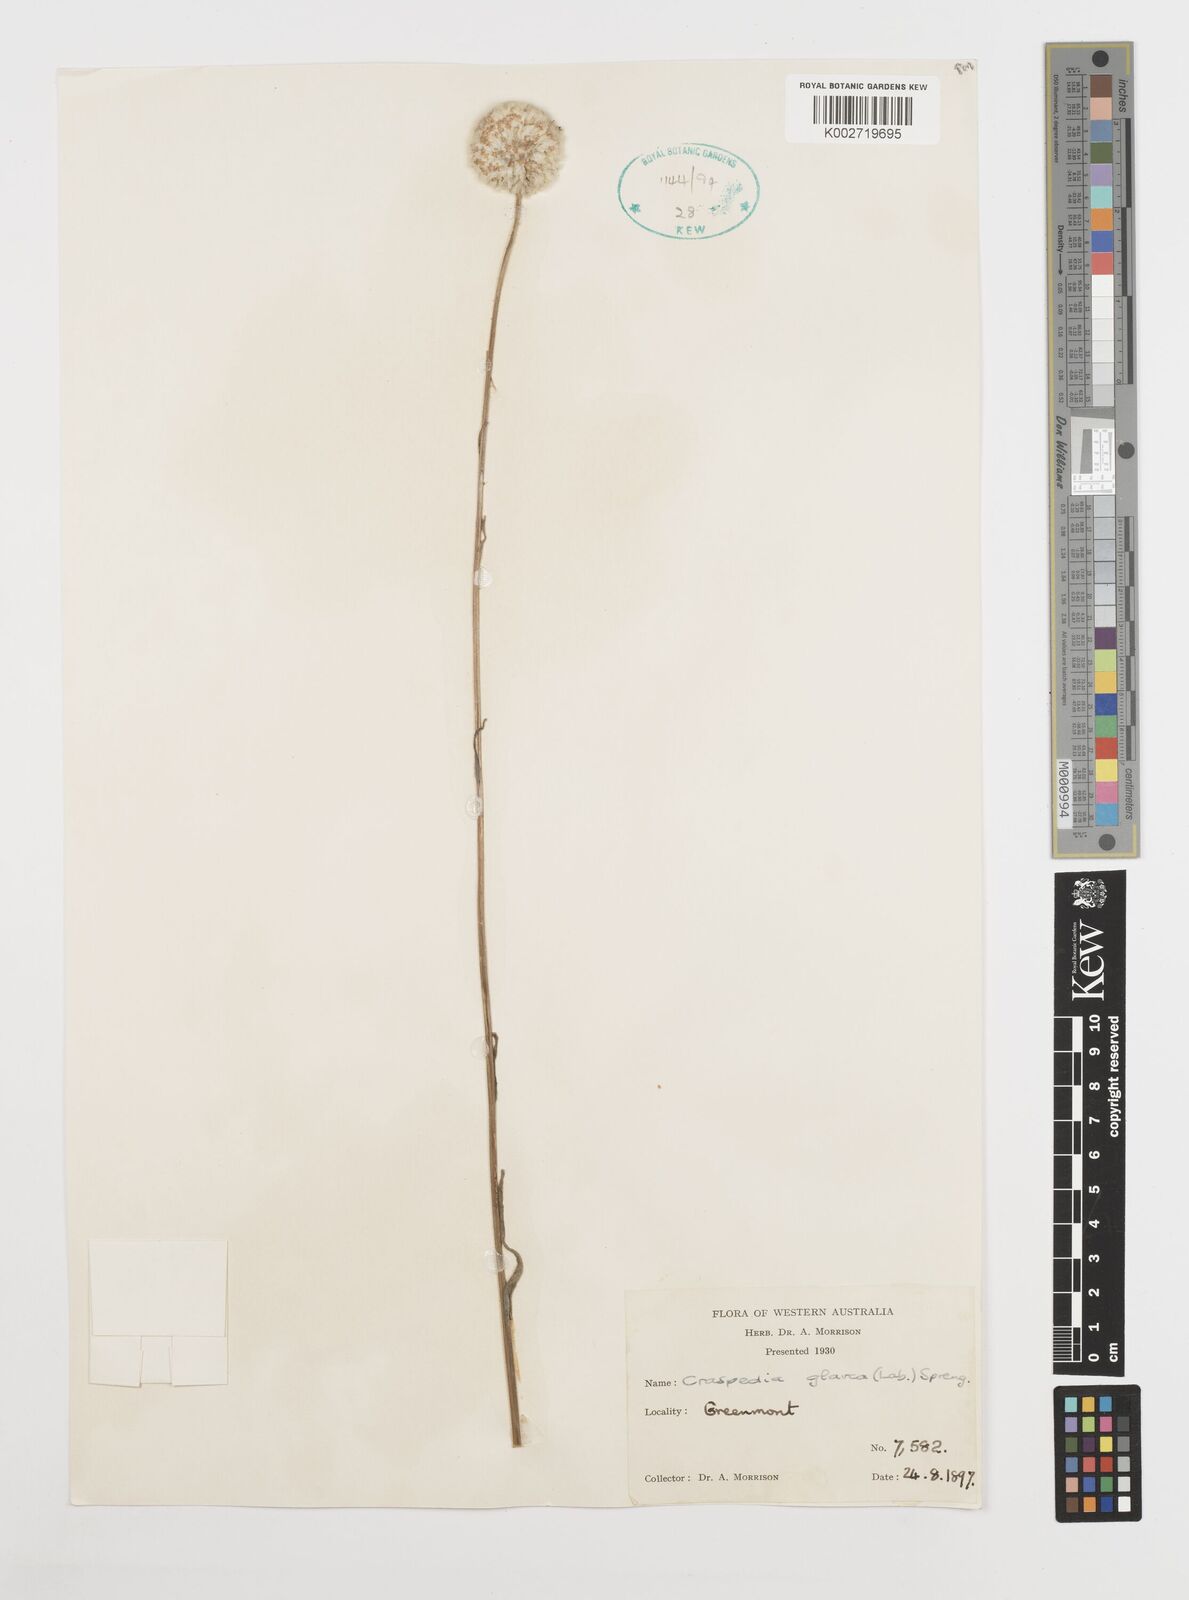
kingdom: Plantae
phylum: Tracheophyta
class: Magnoliopsida
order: Asterales
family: Asteraceae
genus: Craspedia
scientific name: Craspedia glauca
